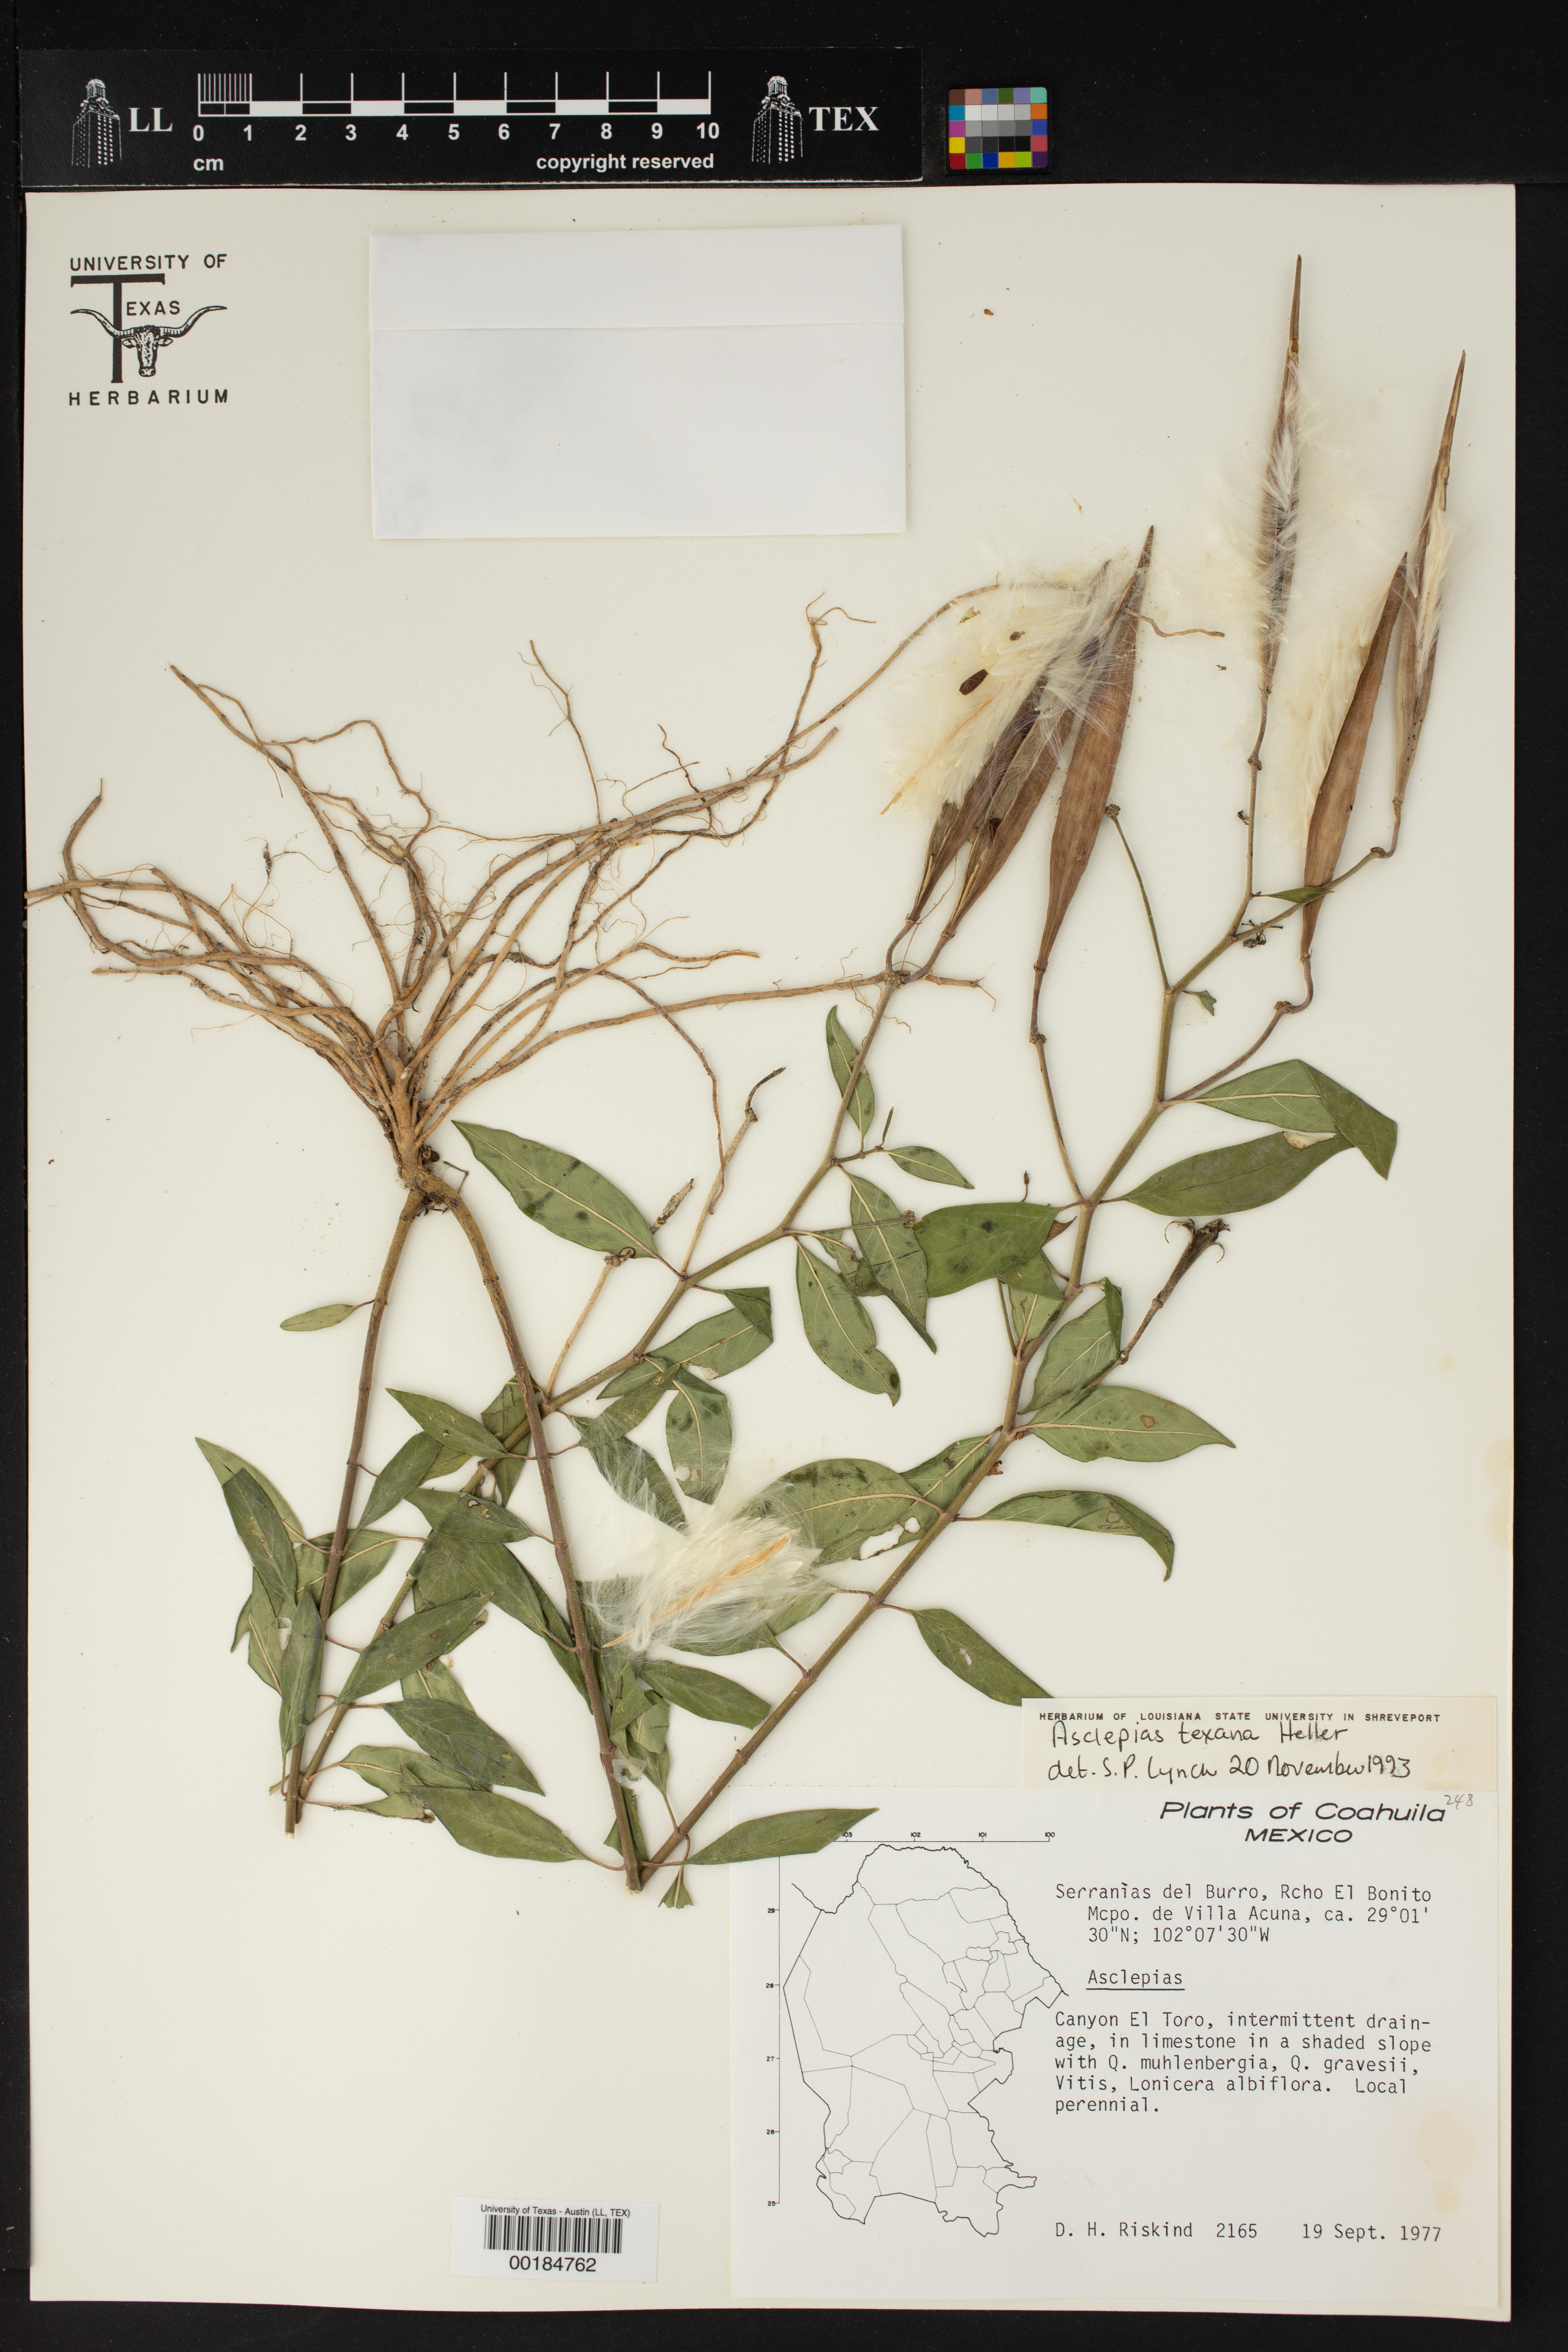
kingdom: Plantae
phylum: Tracheophyta
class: Magnoliopsida
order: Gentianales
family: Apocynaceae
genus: Asclepias
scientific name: Asclepias texana
